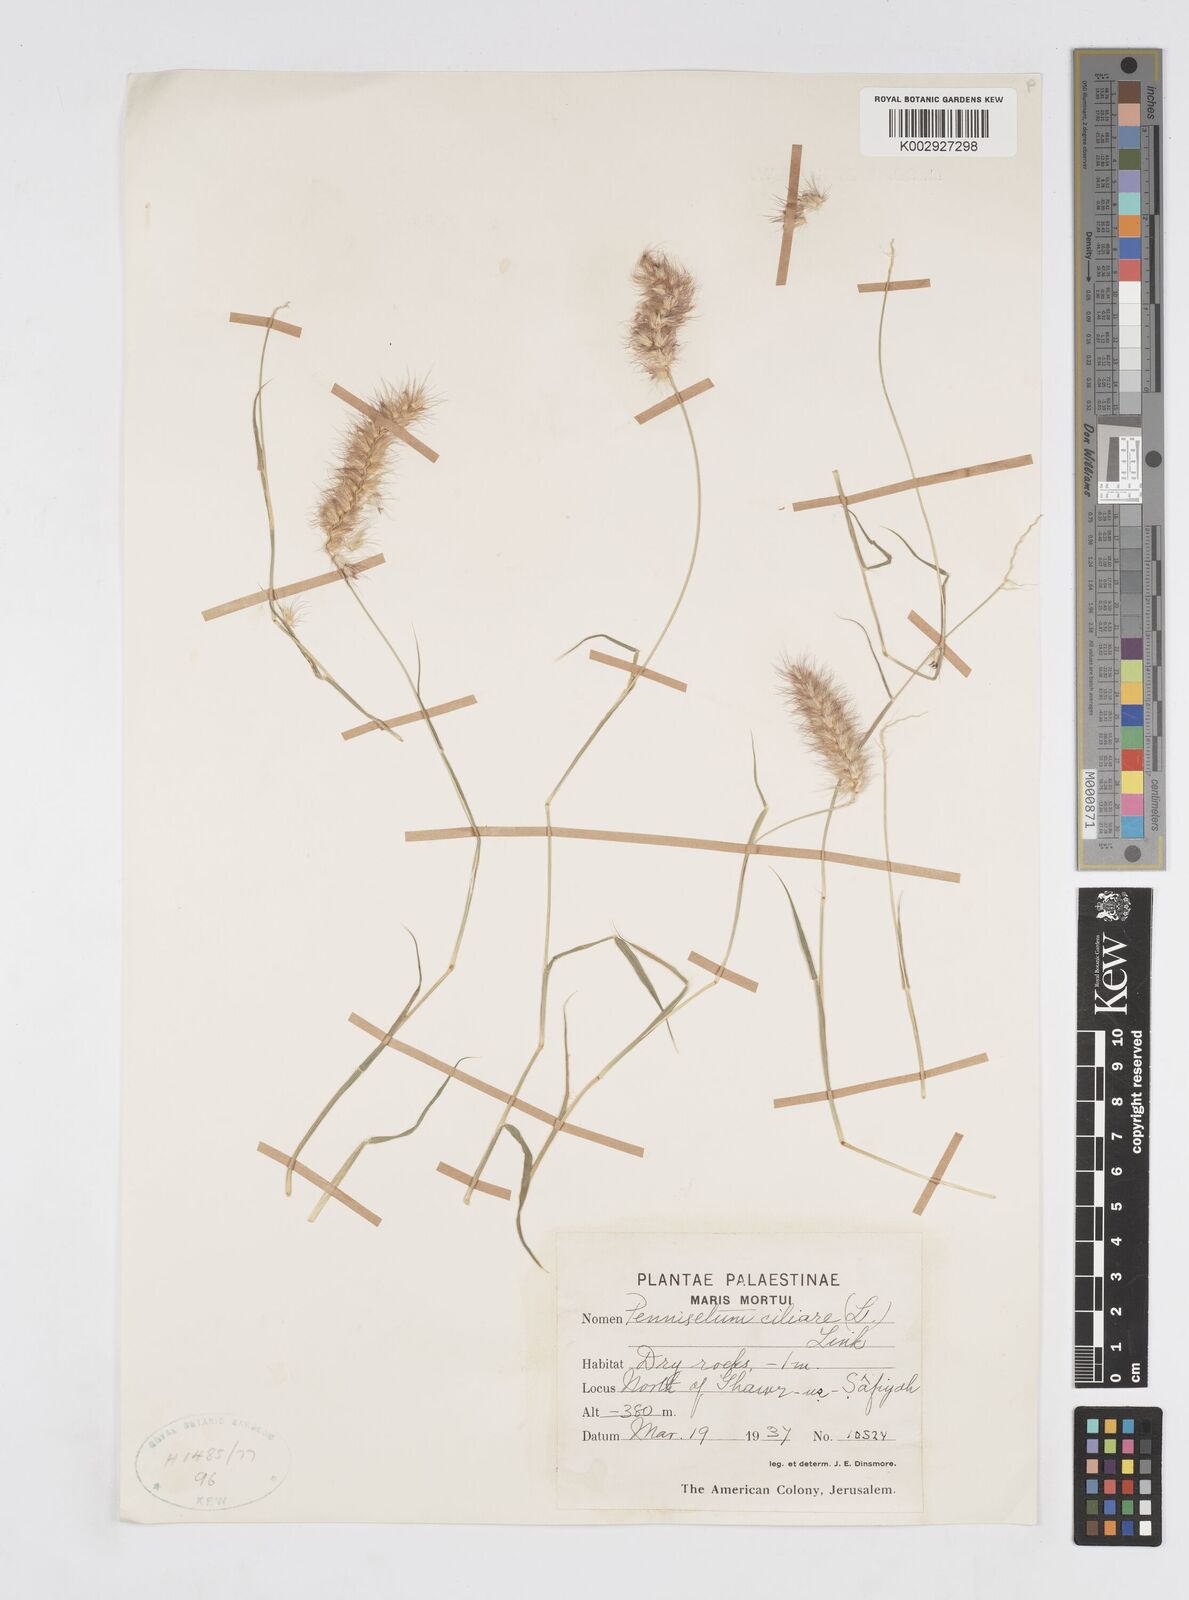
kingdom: Plantae
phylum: Tracheophyta
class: Liliopsida
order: Poales
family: Poaceae
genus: Cenchrus
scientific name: Cenchrus ciliaris
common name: Buffelgrass
